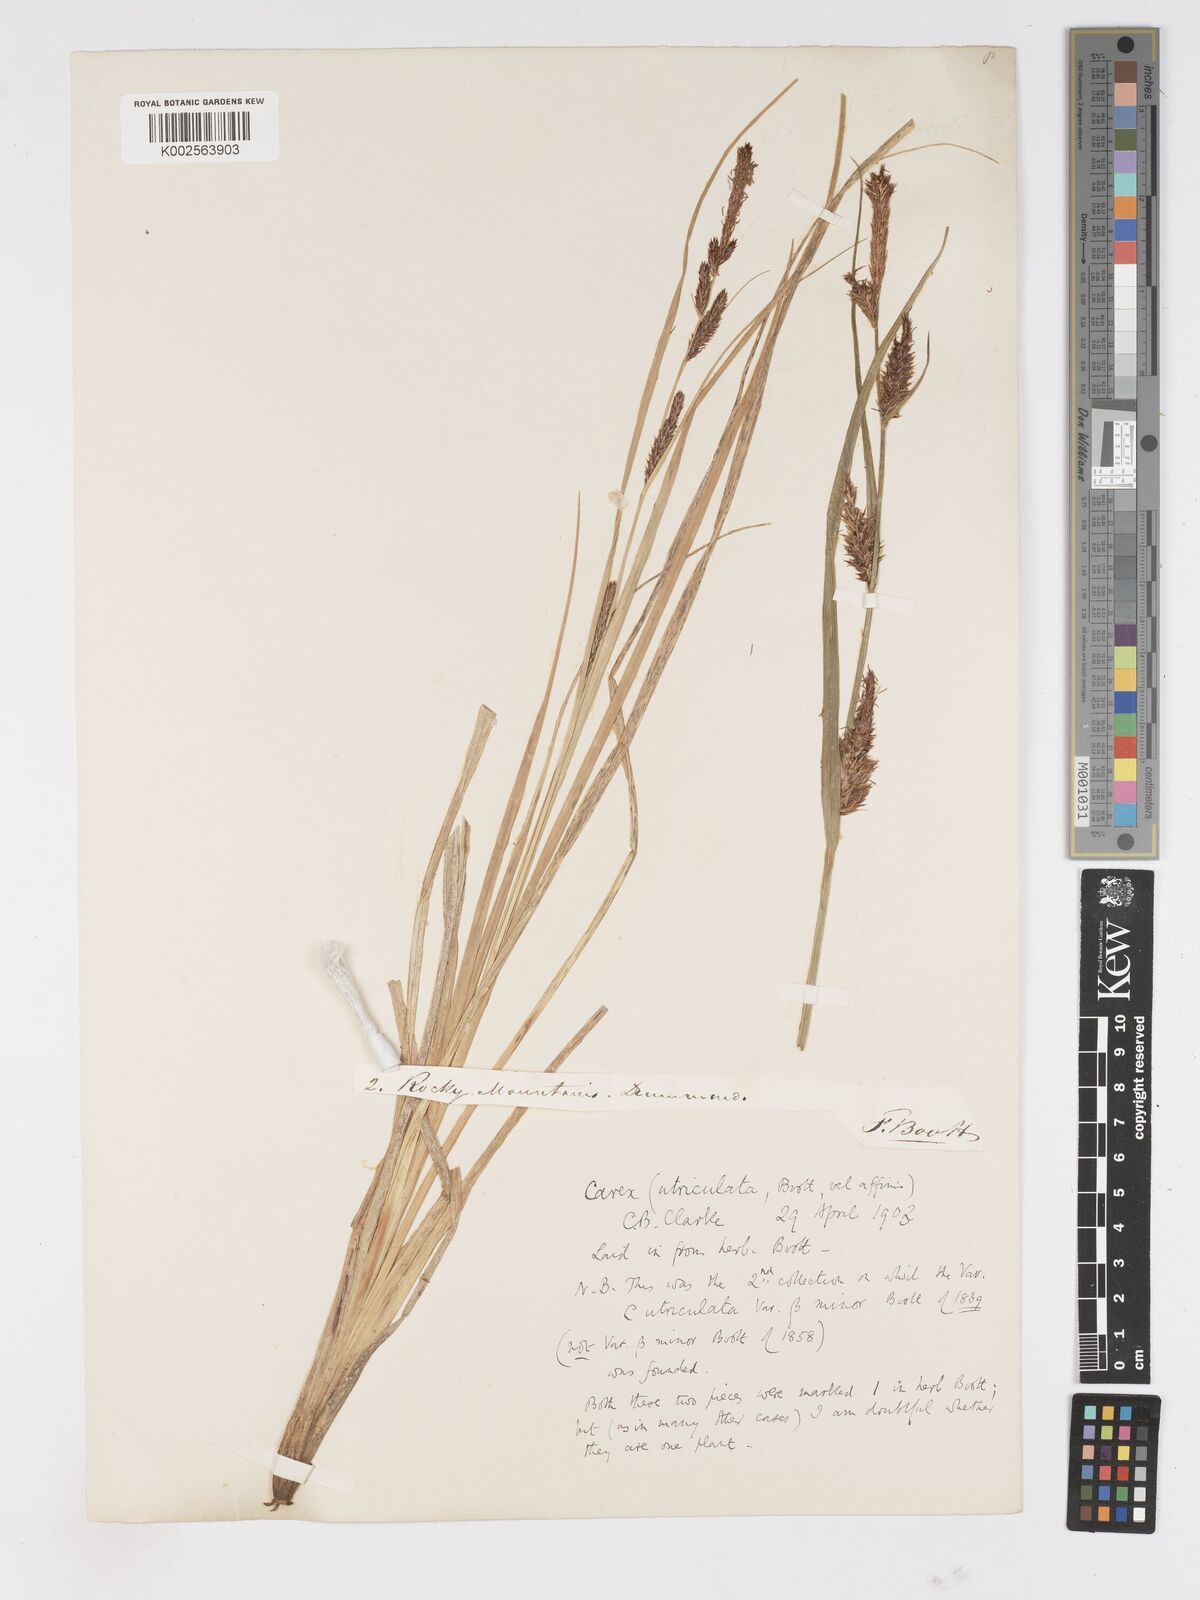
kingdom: Plantae
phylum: Tracheophyta
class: Liliopsida
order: Poales
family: Cyperaceae
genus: Carex
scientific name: Carex rostrata
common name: Bottle sedge
